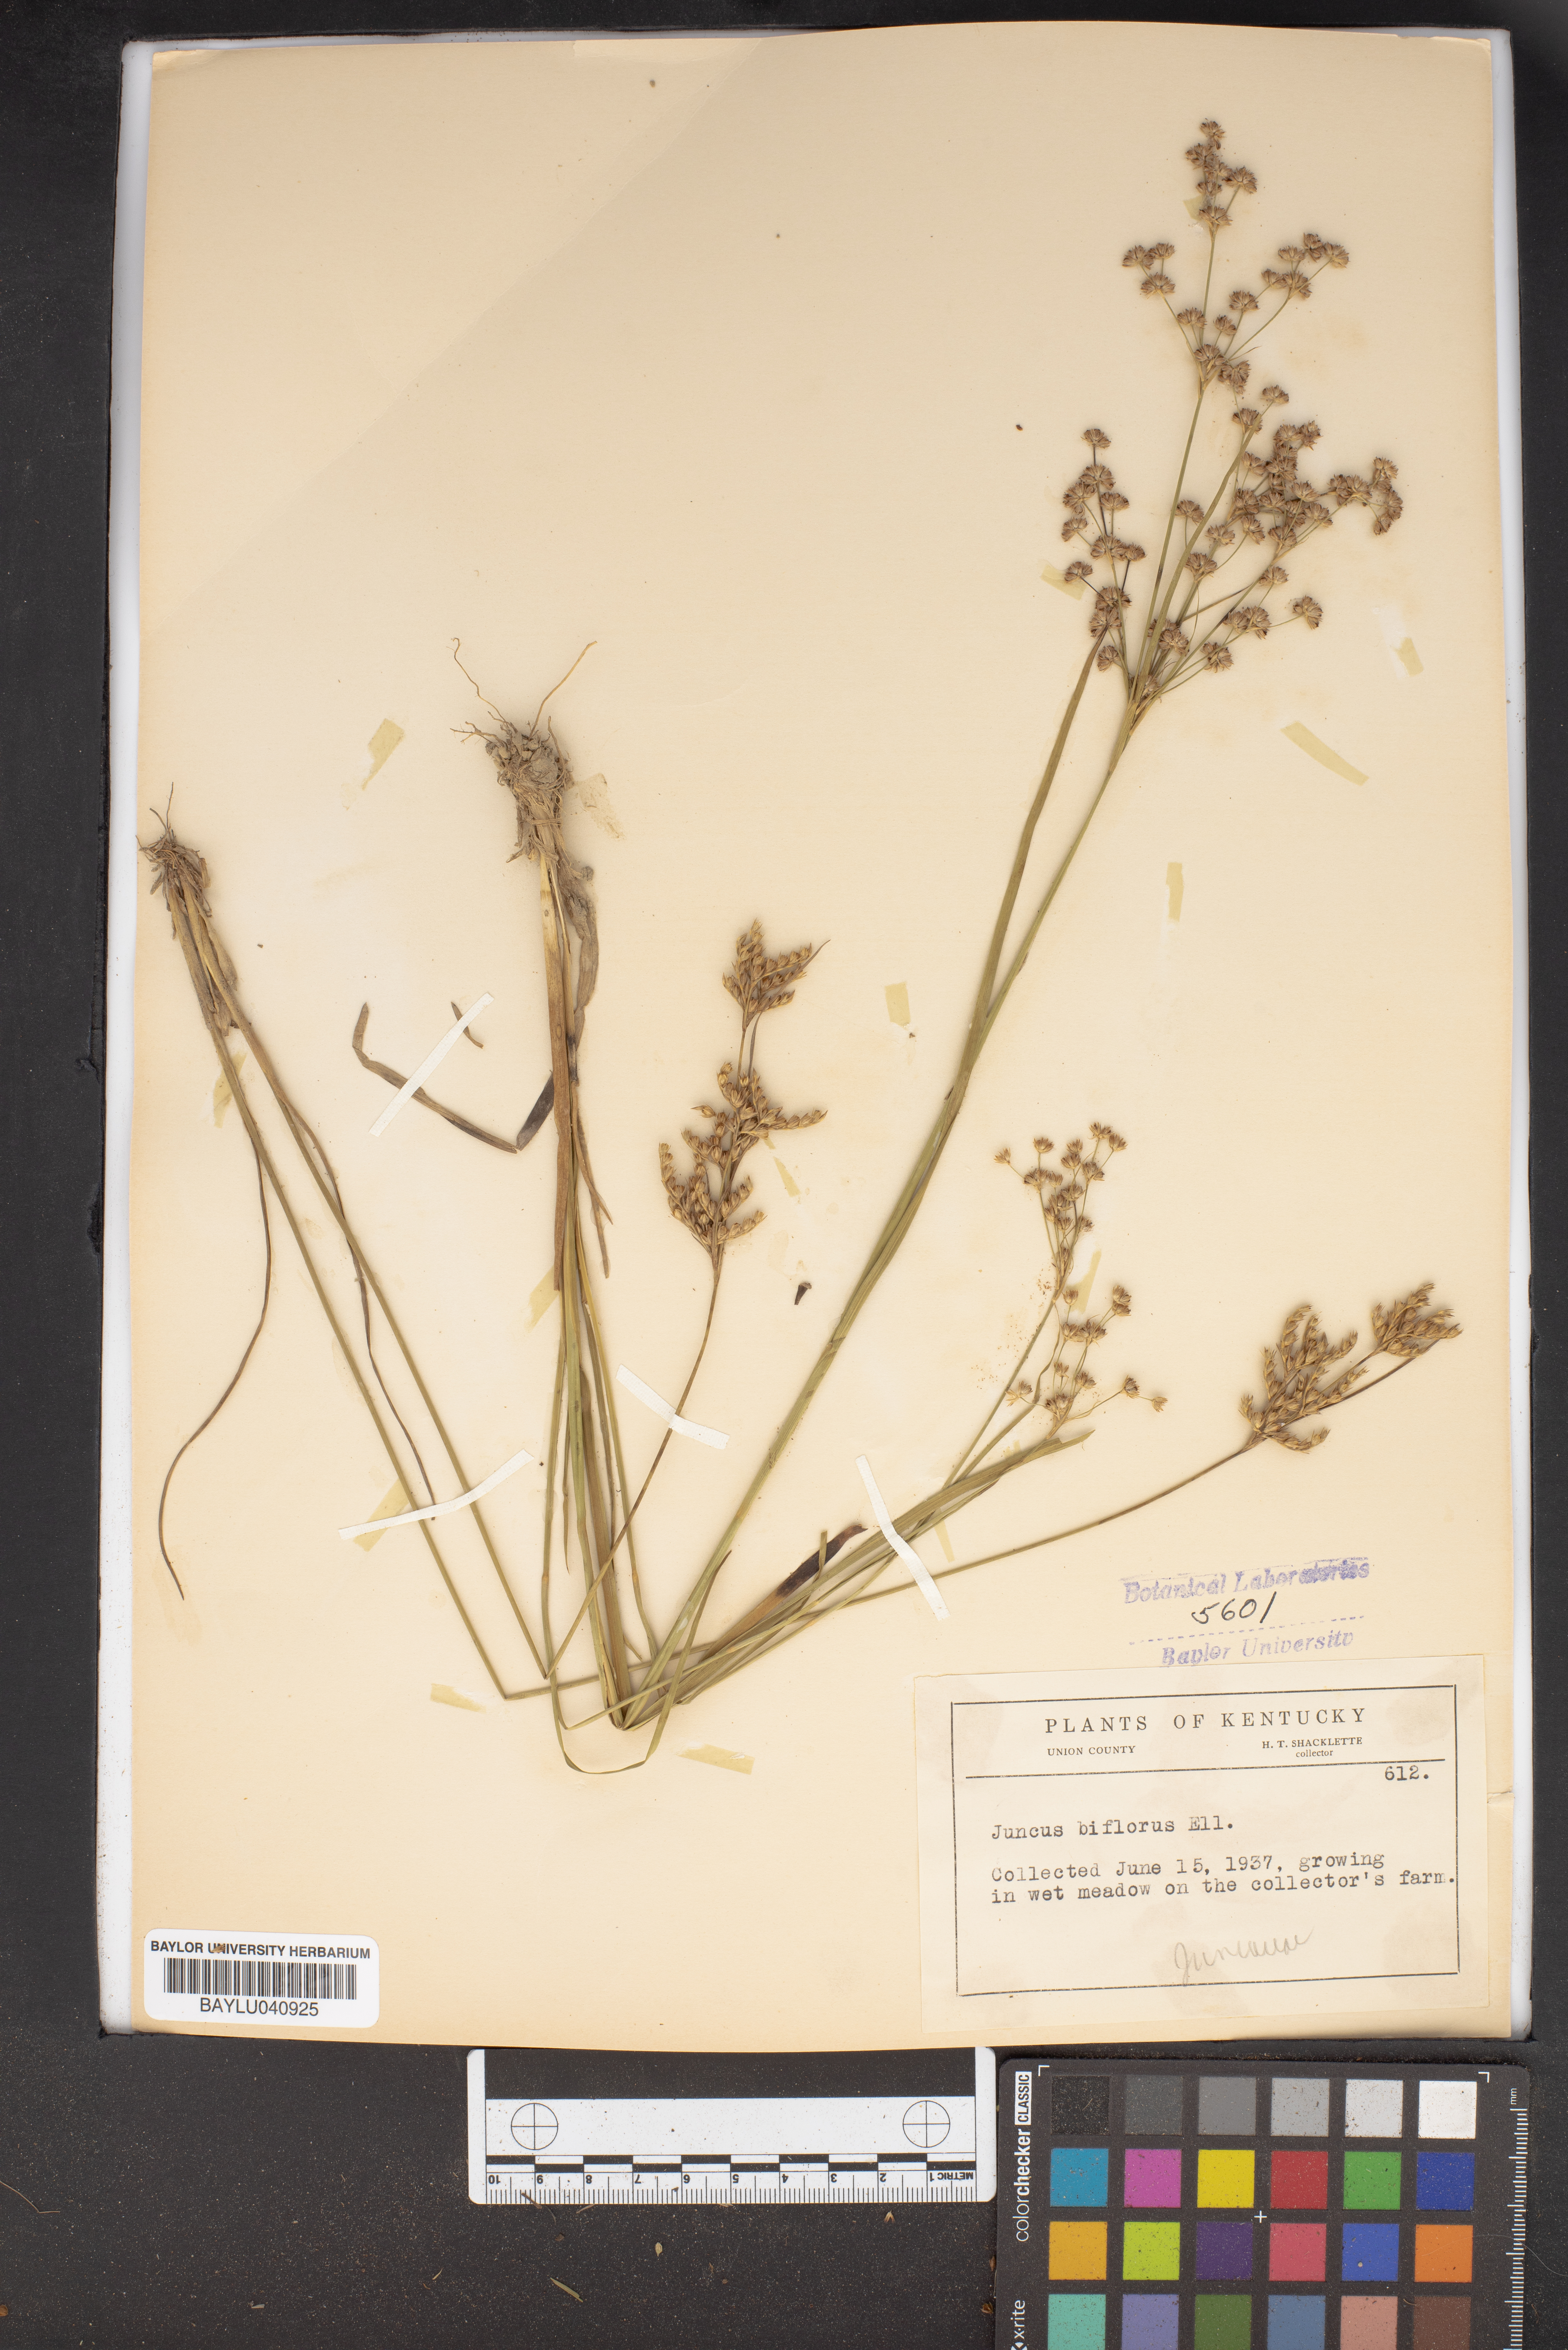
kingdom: Plantae
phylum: Tracheophyta
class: Liliopsida
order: Poales
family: Juncaceae
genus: Juncus
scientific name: Juncus biflorus
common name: Two-flowered rush
